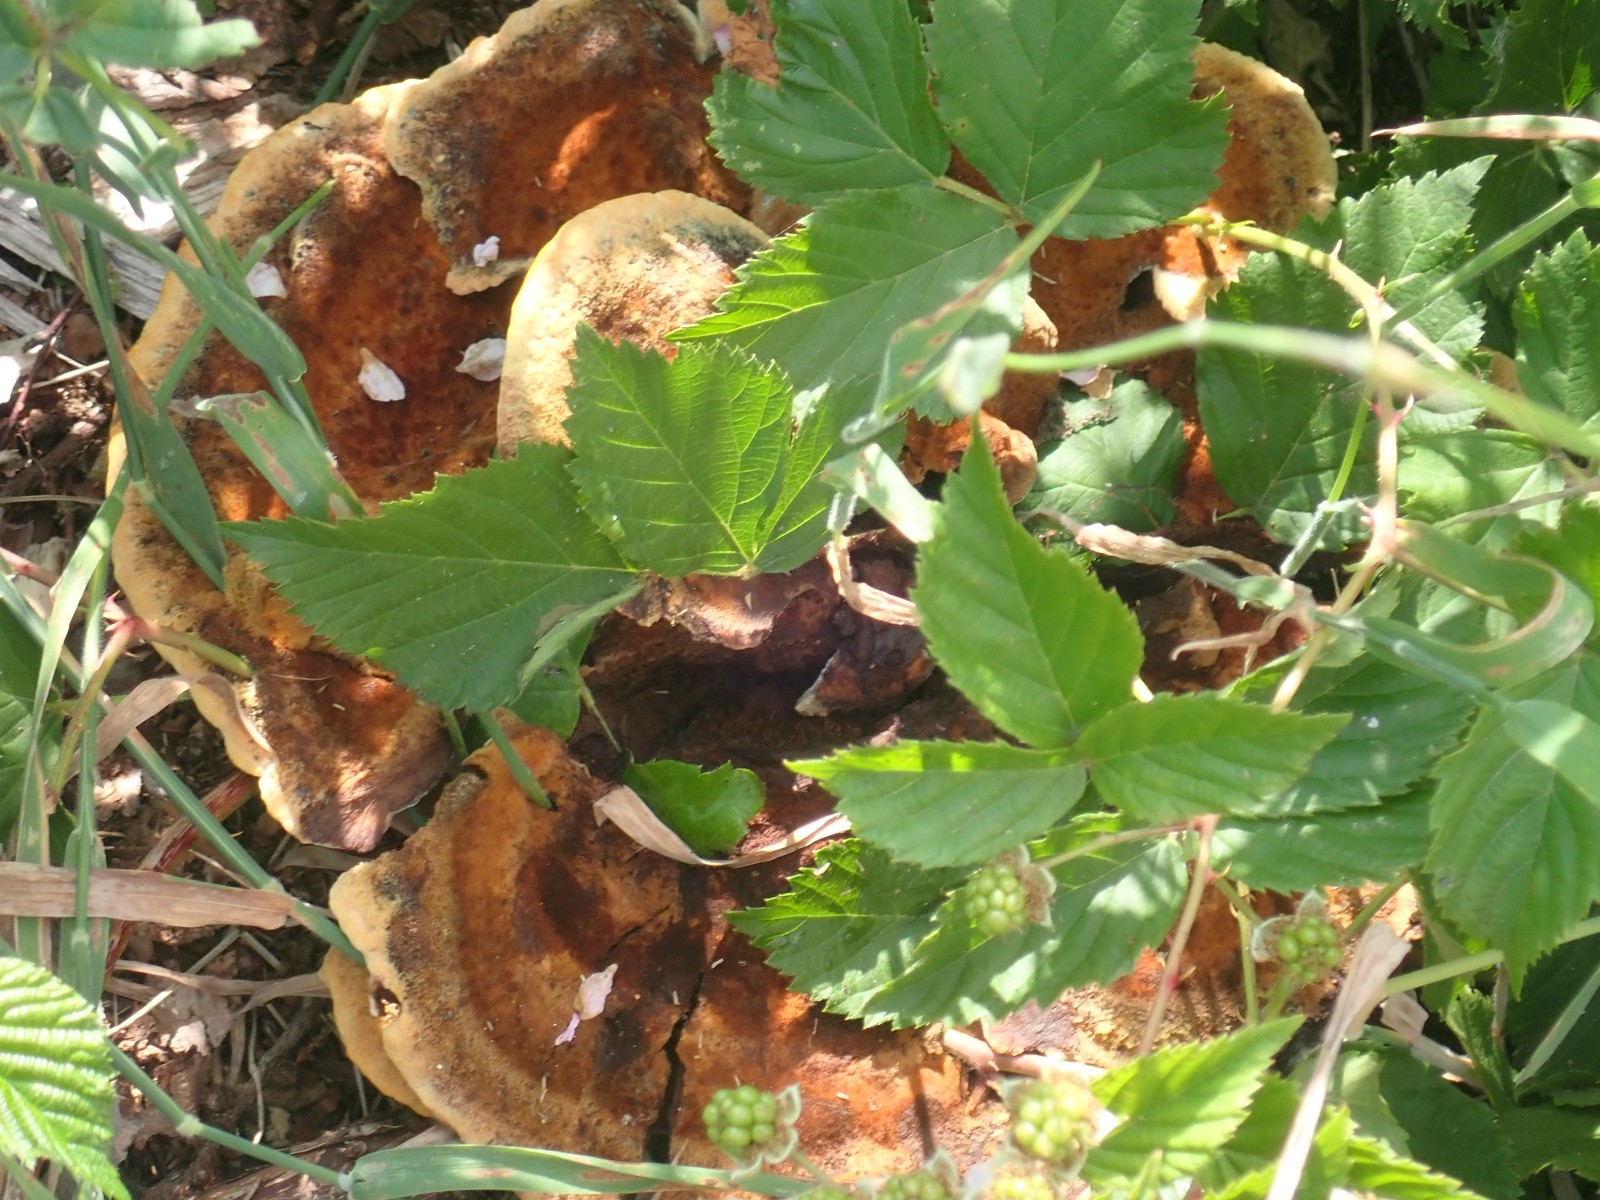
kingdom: Fungi
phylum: Basidiomycota
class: Agaricomycetes
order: Polyporales
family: Laetiporaceae
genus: Phaeolus
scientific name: Phaeolus schweinitzii
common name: brunporesvamp
